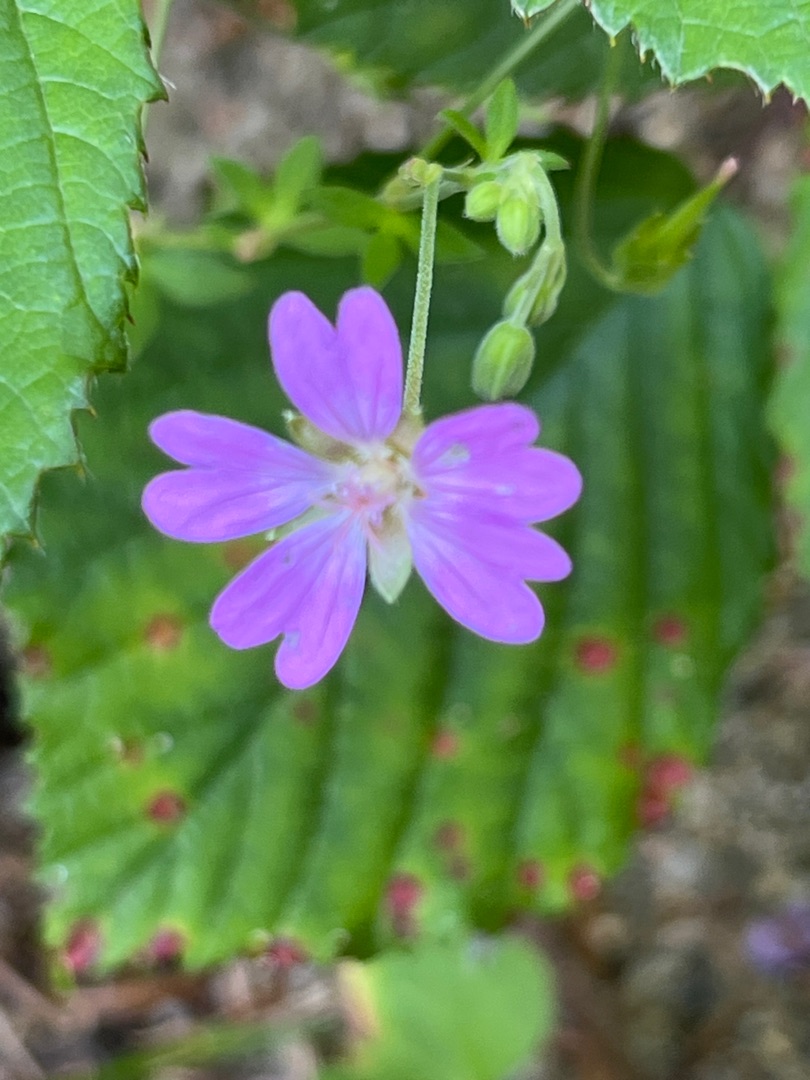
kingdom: Plantae
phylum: Tracheophyta
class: Magnoliopsida
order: Geraniales
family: Geraniaceae
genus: Geranium
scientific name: Geranium pyrenaicum
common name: Pyrenæisk storkenæb
